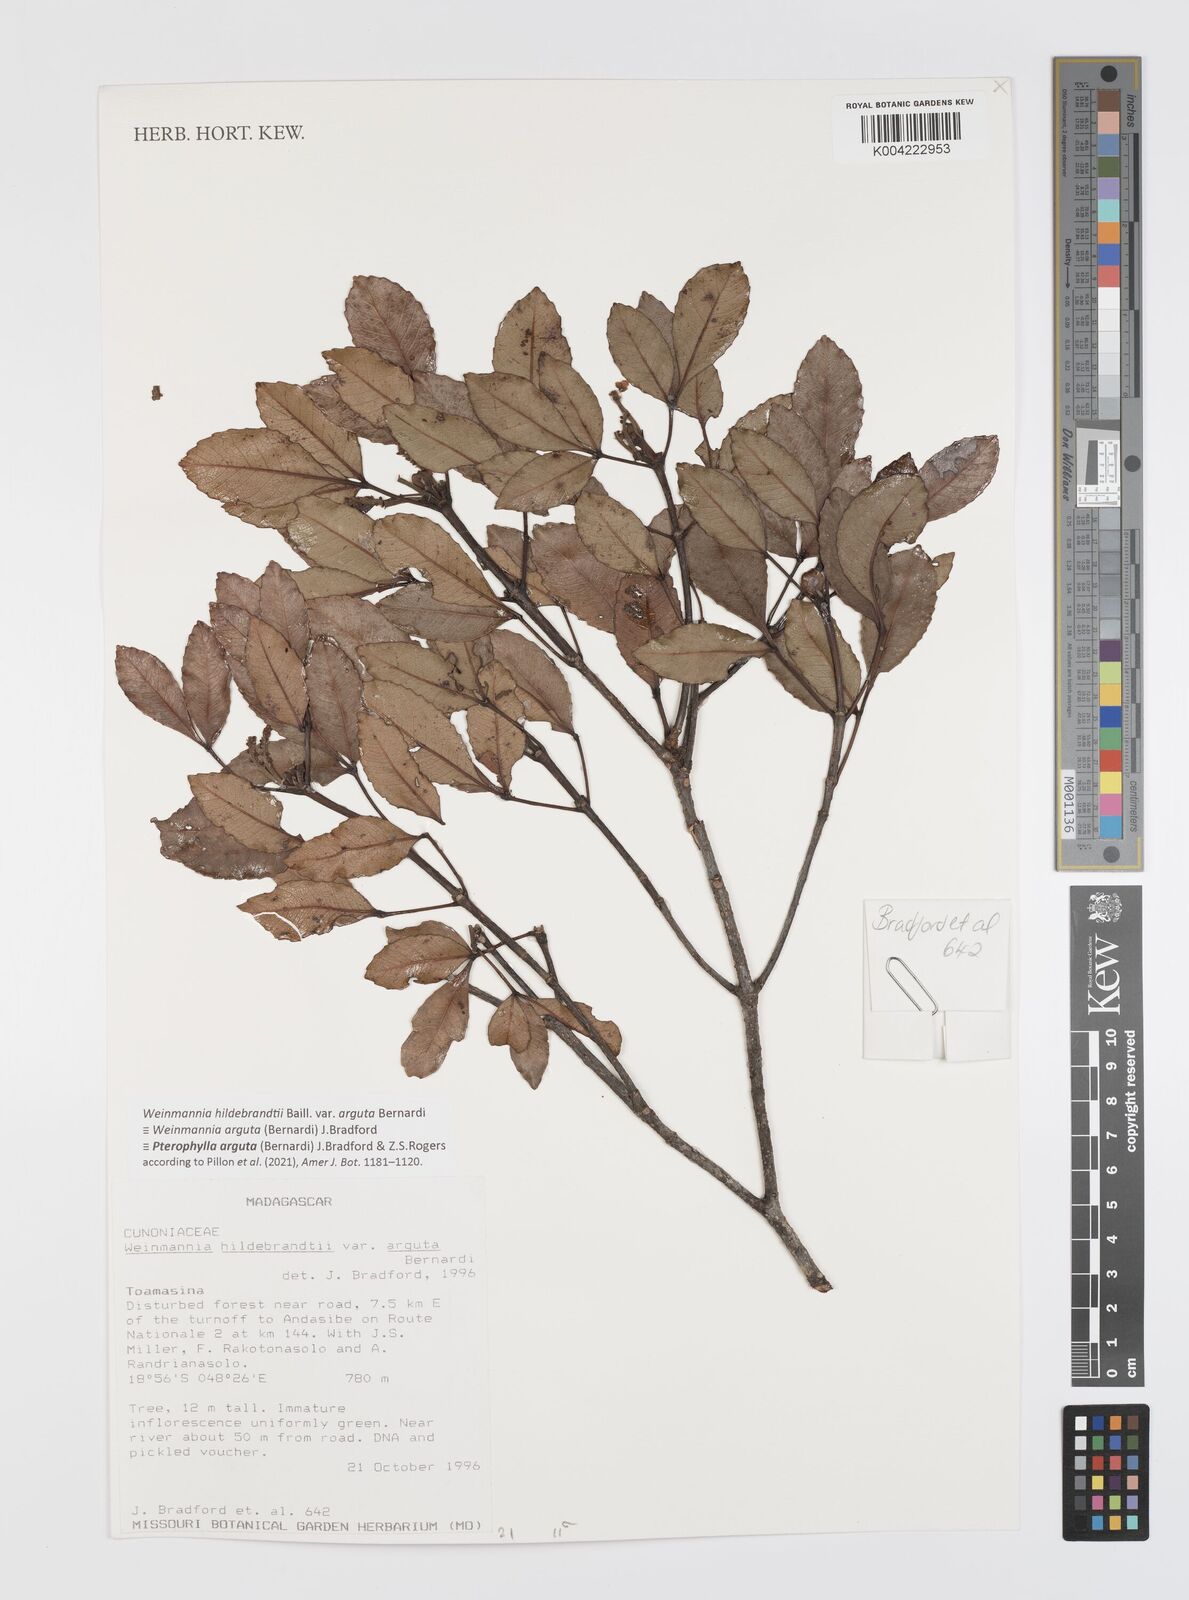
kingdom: Plantae
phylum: Tracheophyta
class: Magnoliopsida
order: Oxalidales
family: Cunoniaceae
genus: Pterophylla
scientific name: Pterophylla arguta
